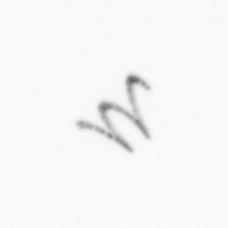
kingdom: Chromista
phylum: Ochrophyta
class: Bacillariophyceae
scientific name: Bacillariophyceae
